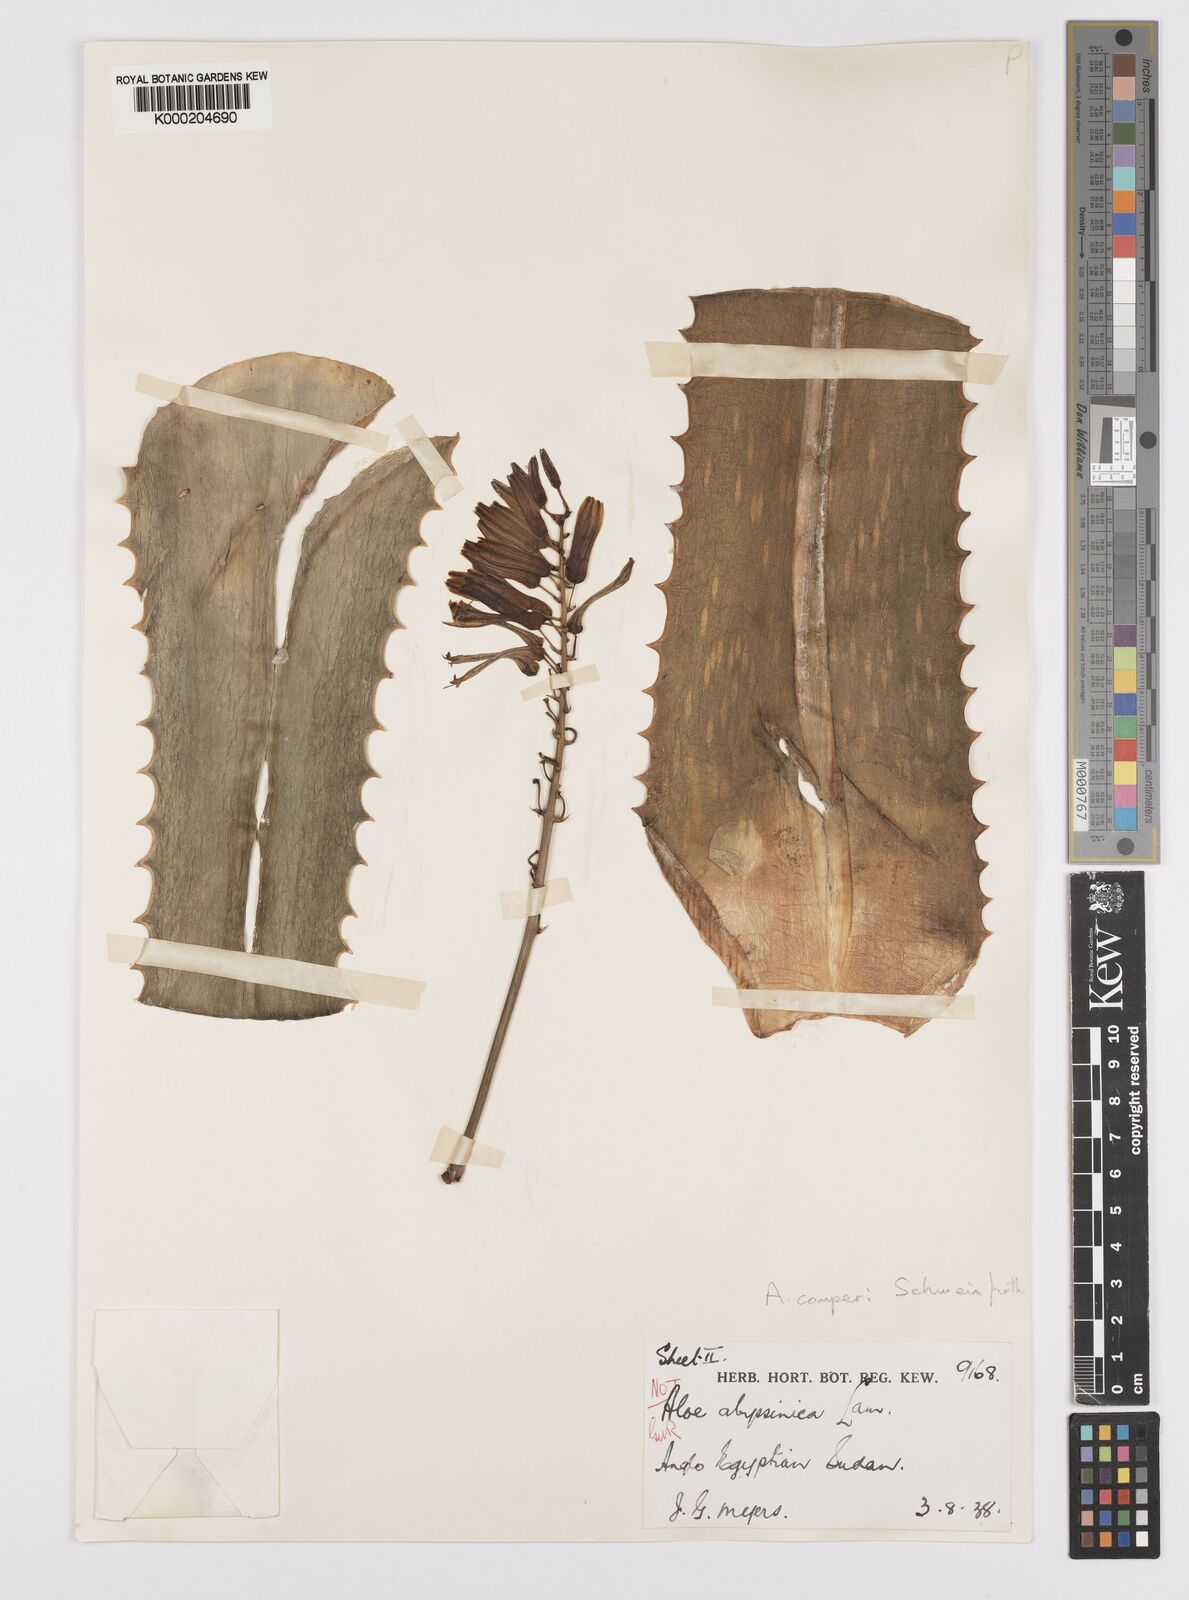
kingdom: Plantae
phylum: Tracheophyta
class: Liliopsida
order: Asparagales
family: Asphodelaceae
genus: Aloe
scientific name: Aloe schweinfurthii
